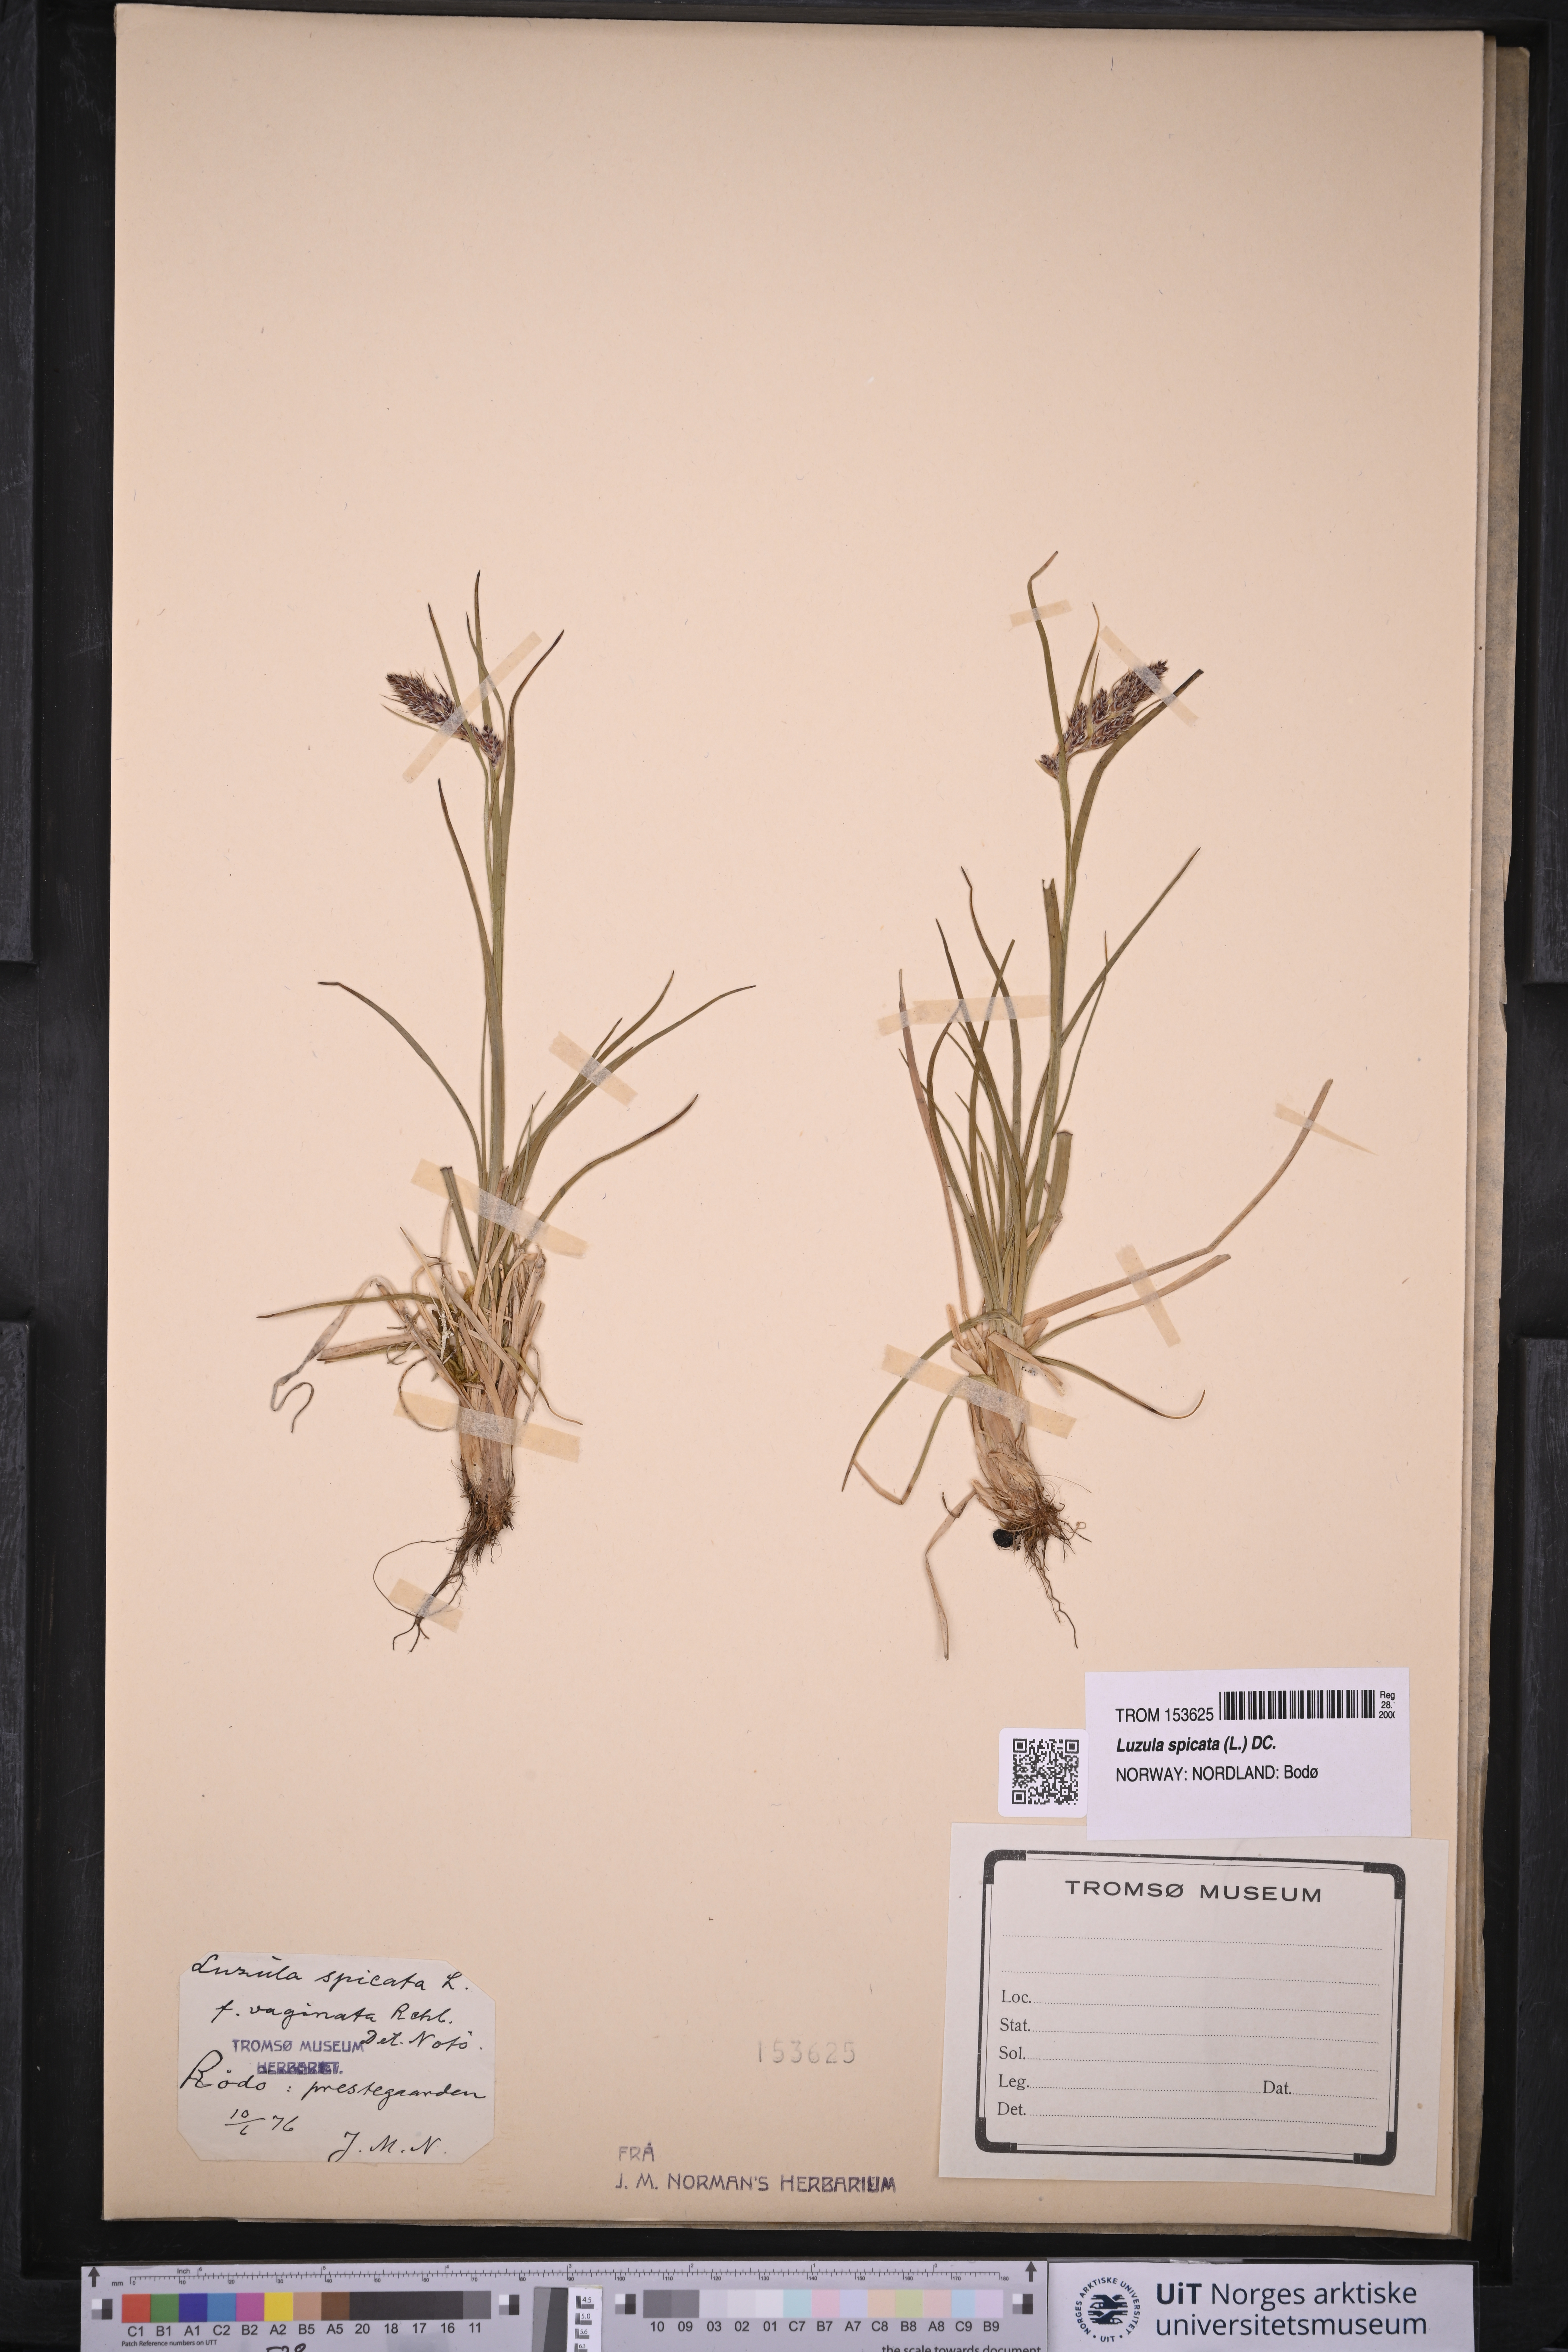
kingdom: Plantae
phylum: Tracheophyta
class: Liliopsida
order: Poales
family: Juncaceae
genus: Luzula
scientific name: Luzula spicata
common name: Spiked wood-rush
